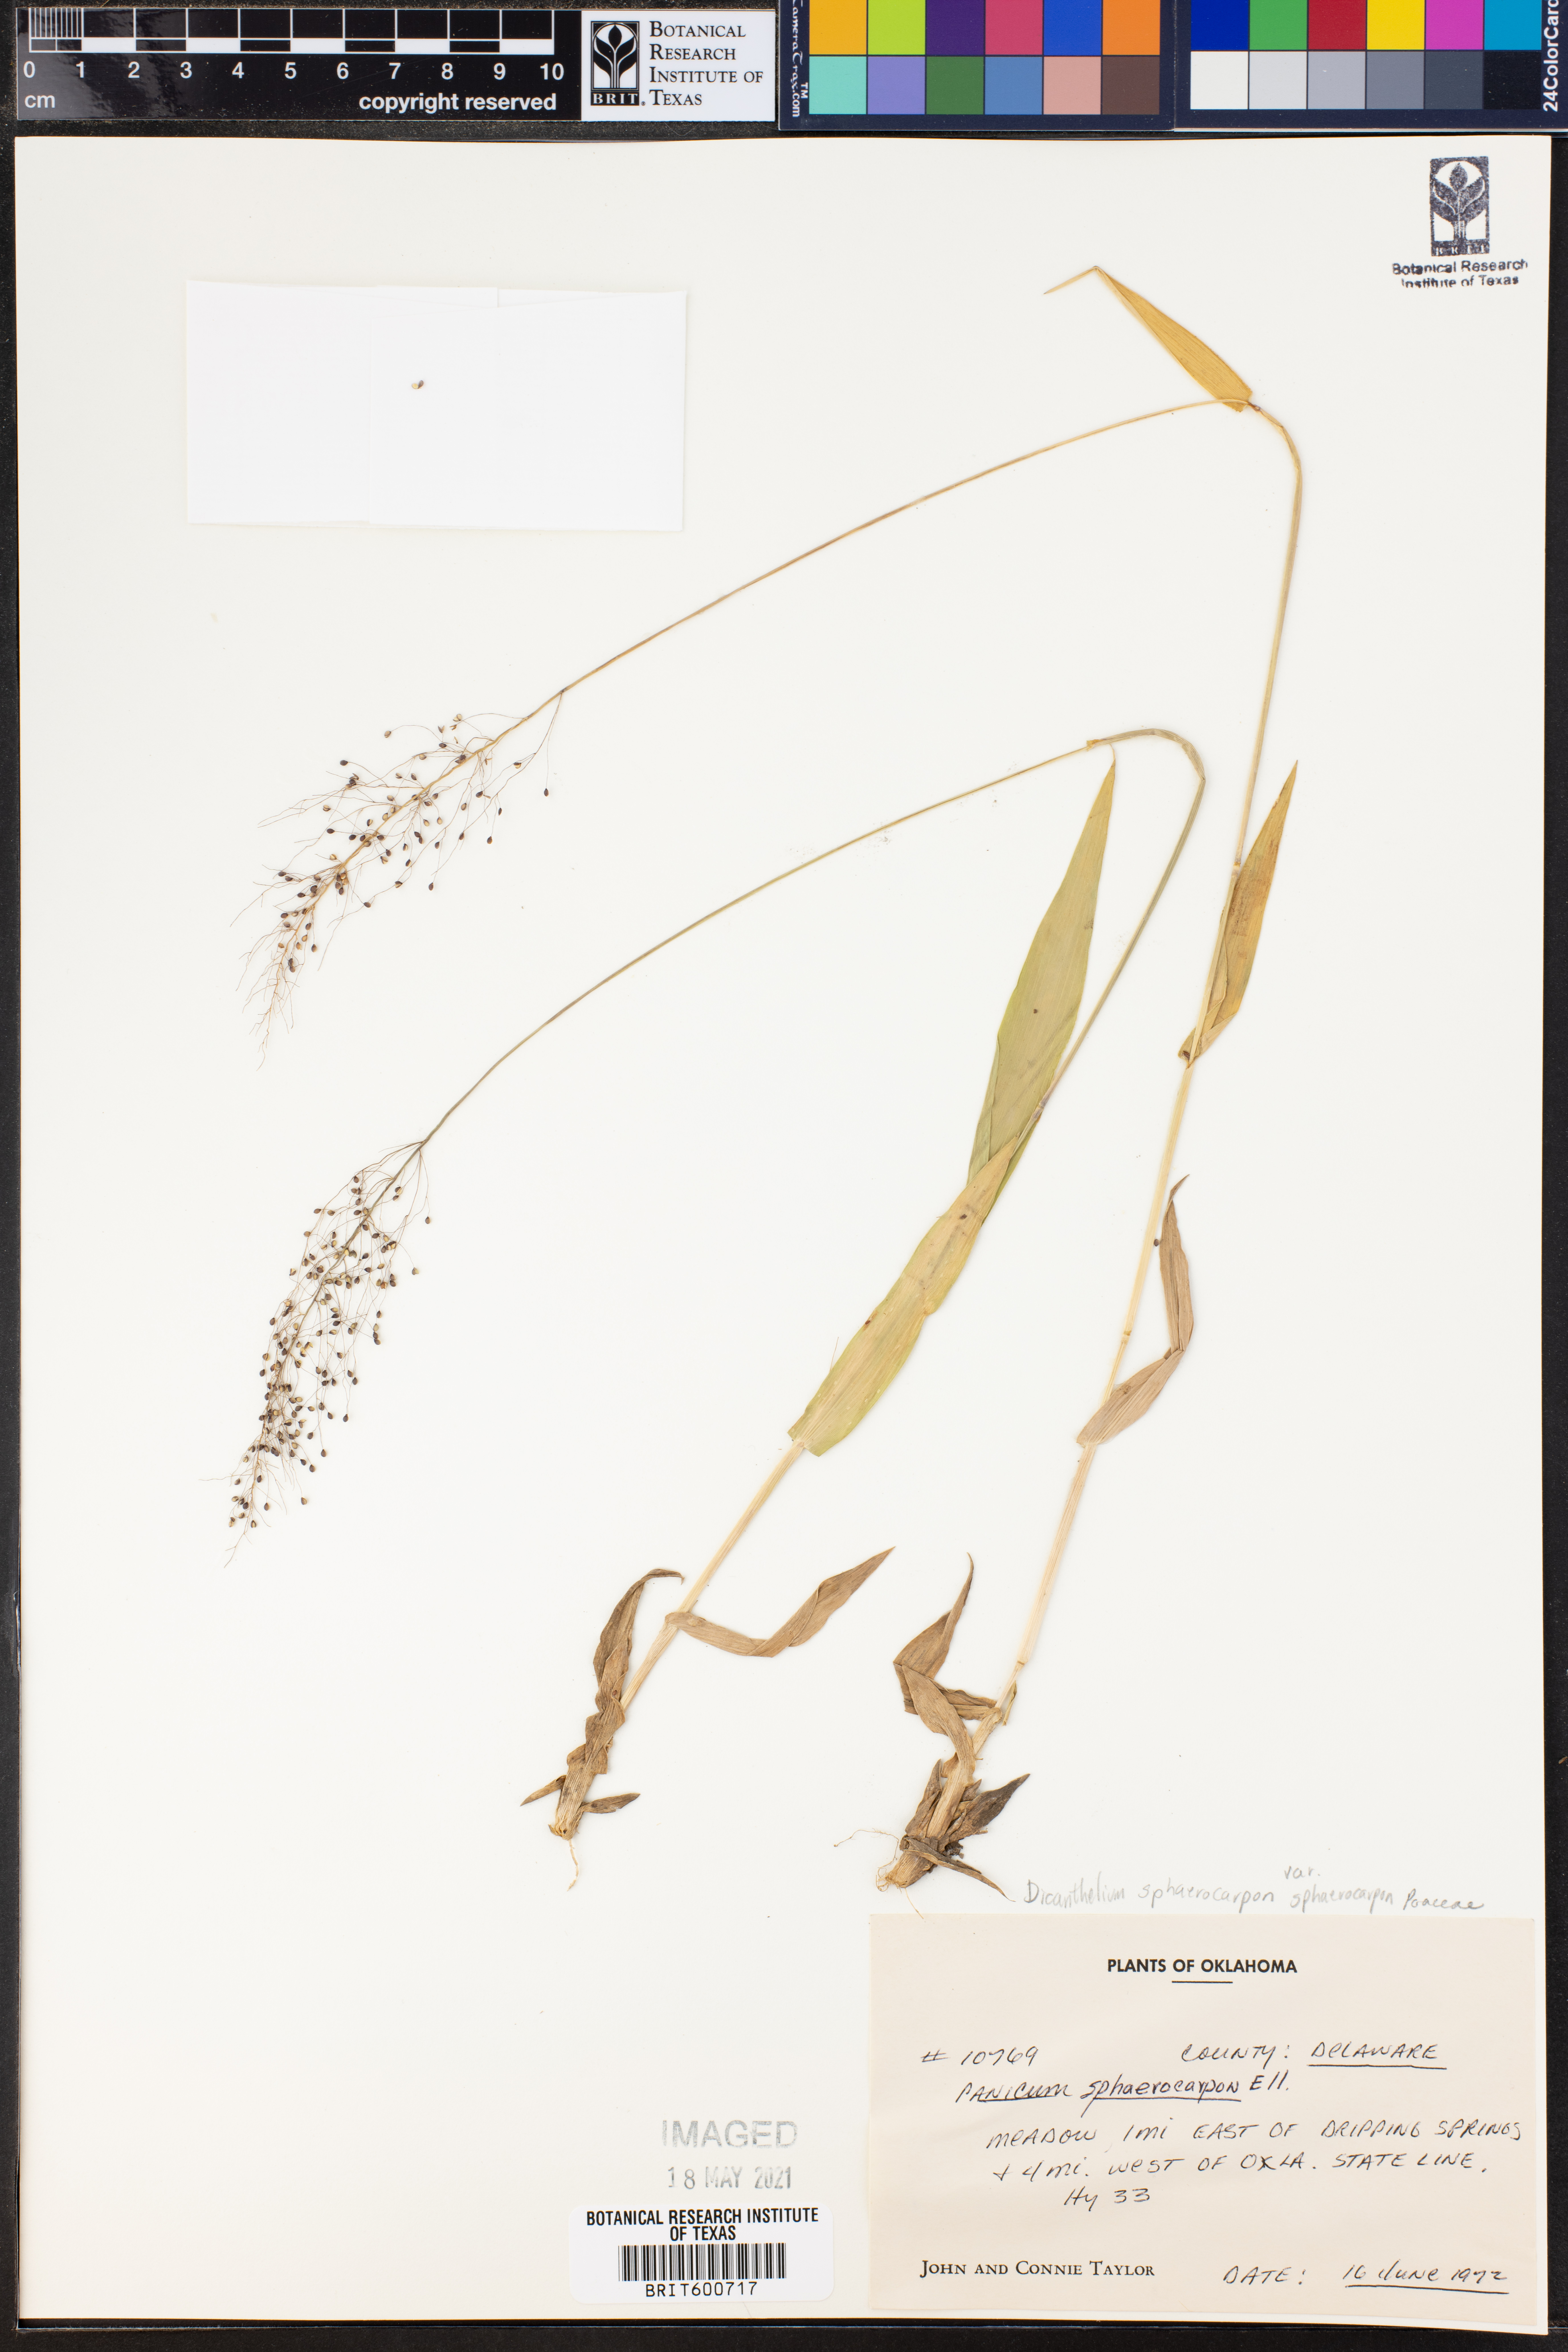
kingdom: Plantae
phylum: Tracheophyta
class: Liliopsida
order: Poales
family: Poaceae
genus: Dichanthelium
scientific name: Dichanthelium sphaerocarpon
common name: Round-fruited panicgrass
